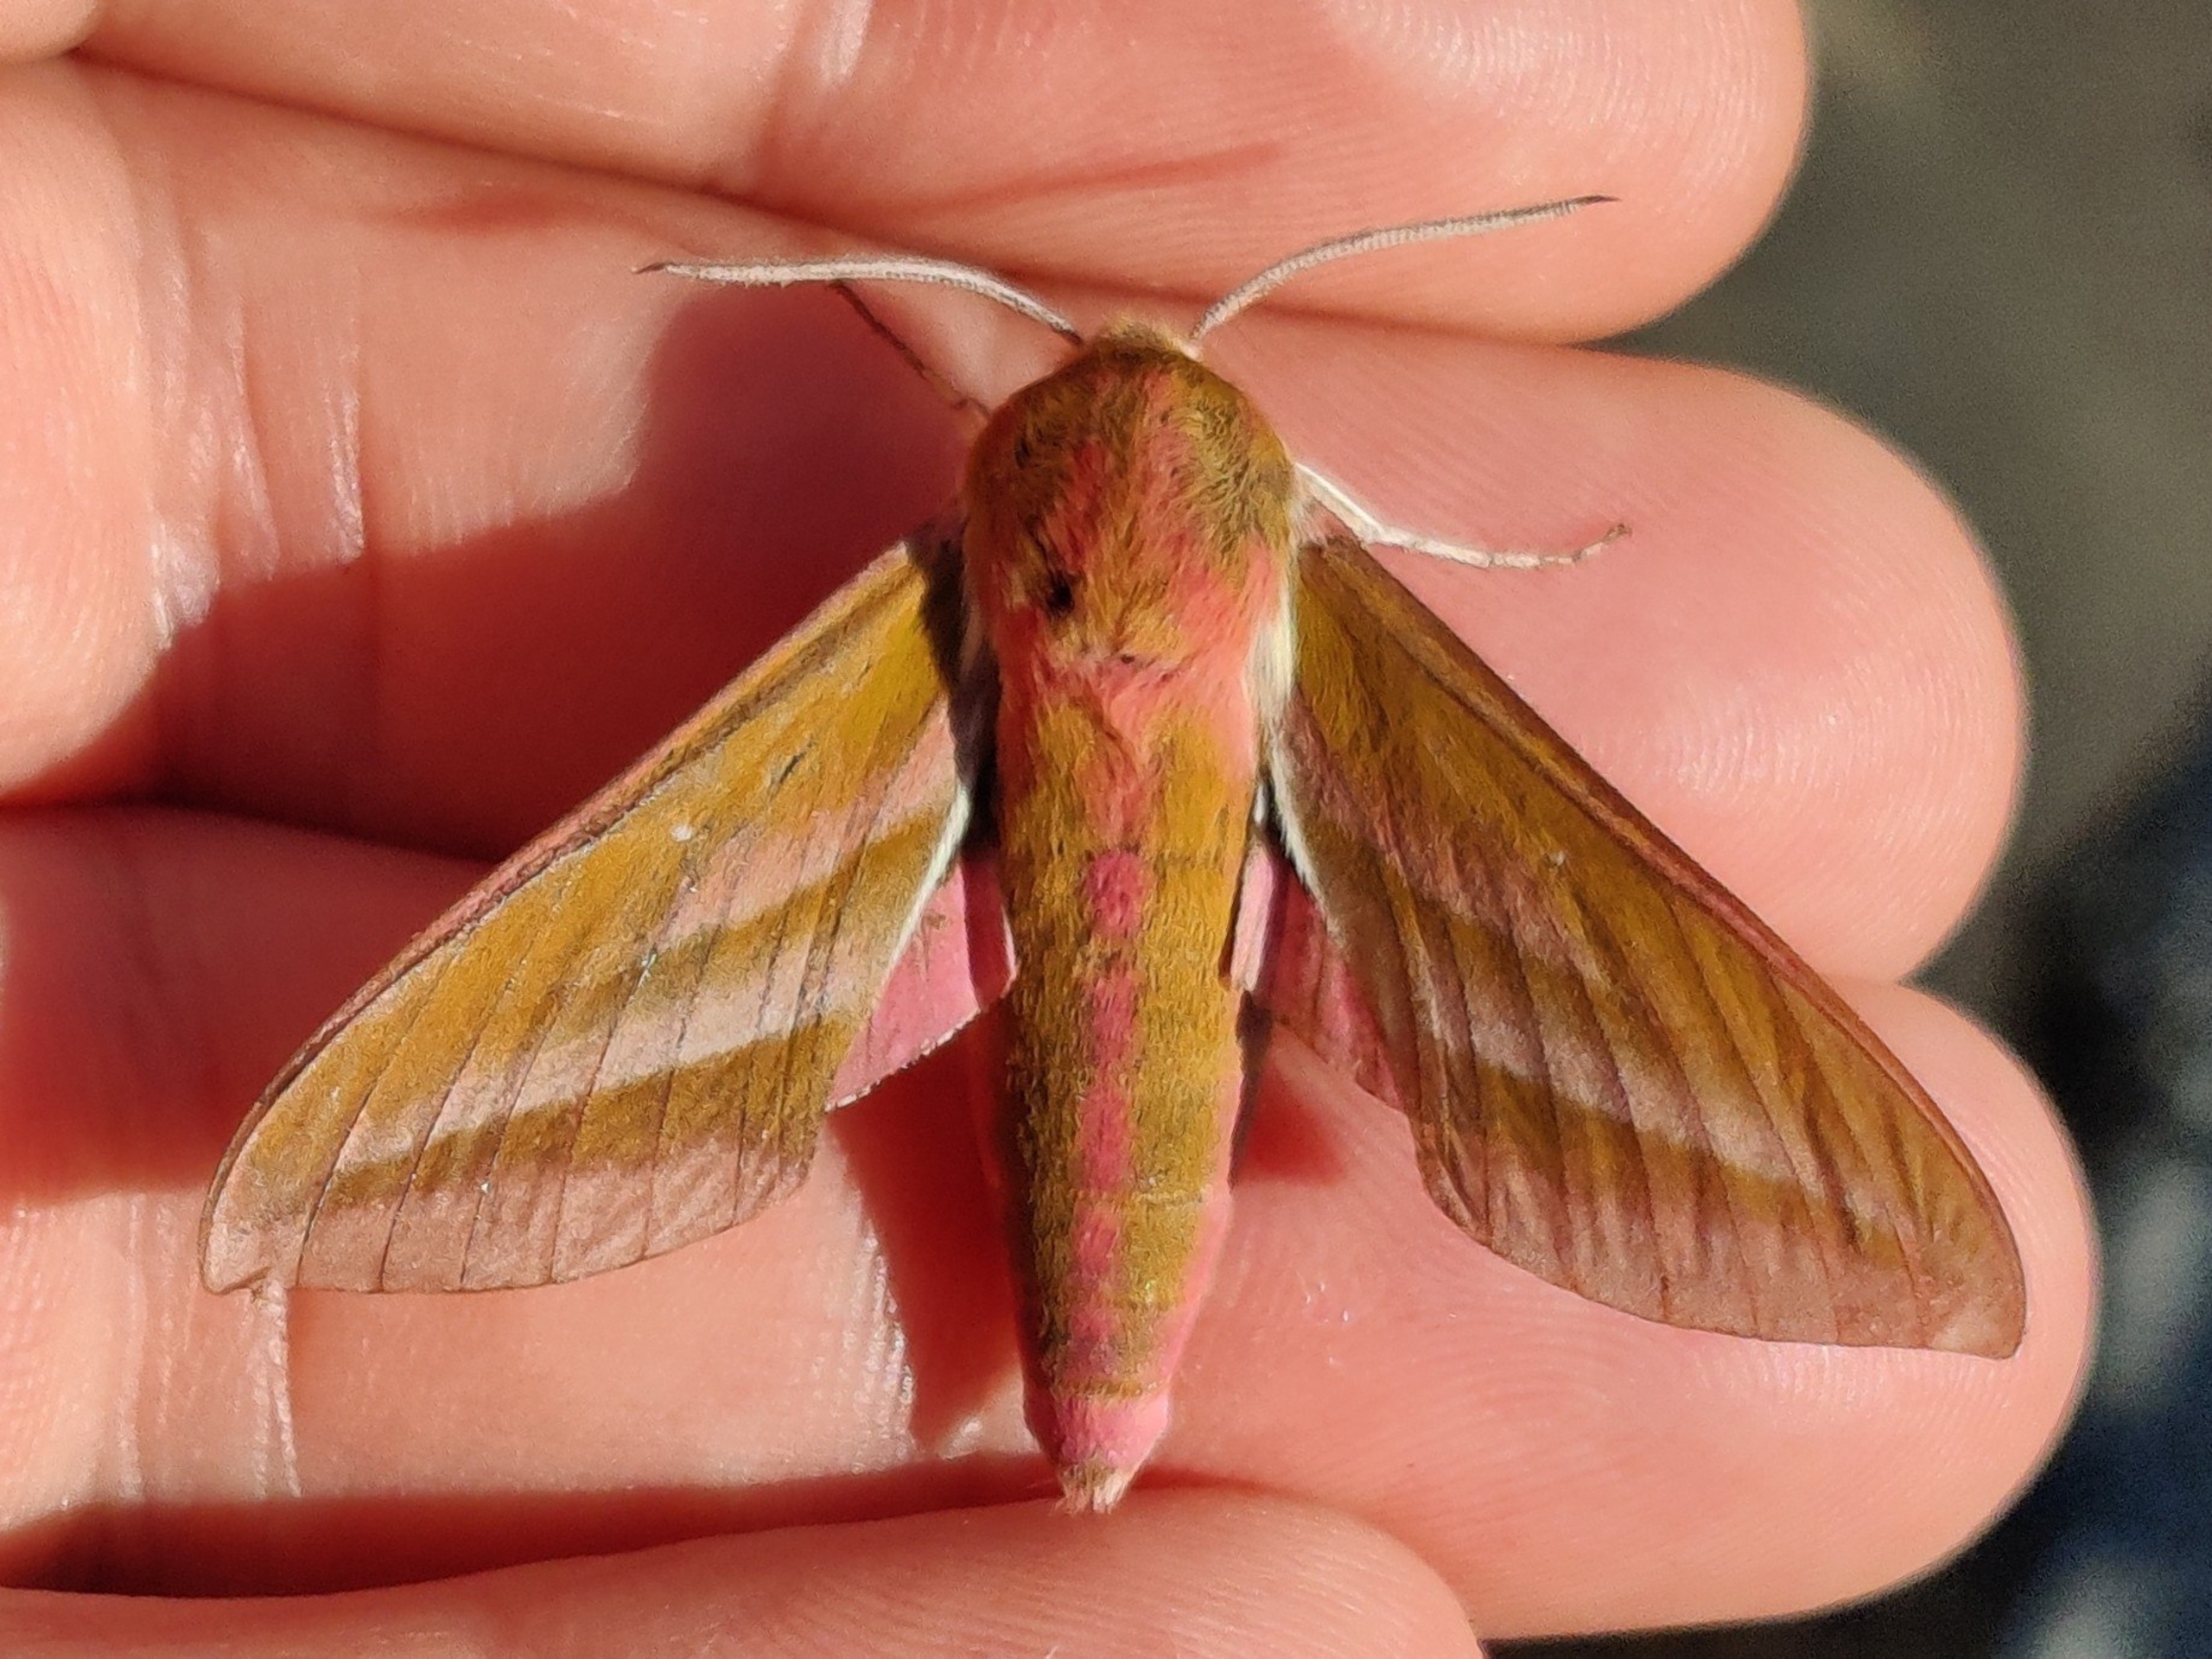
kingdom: Animalia
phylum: Arthropoda
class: Insecta
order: Lepidoptera
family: Sphingidae
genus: Deilephila
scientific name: Deilephila elpenor
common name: Dueurtsværmer
